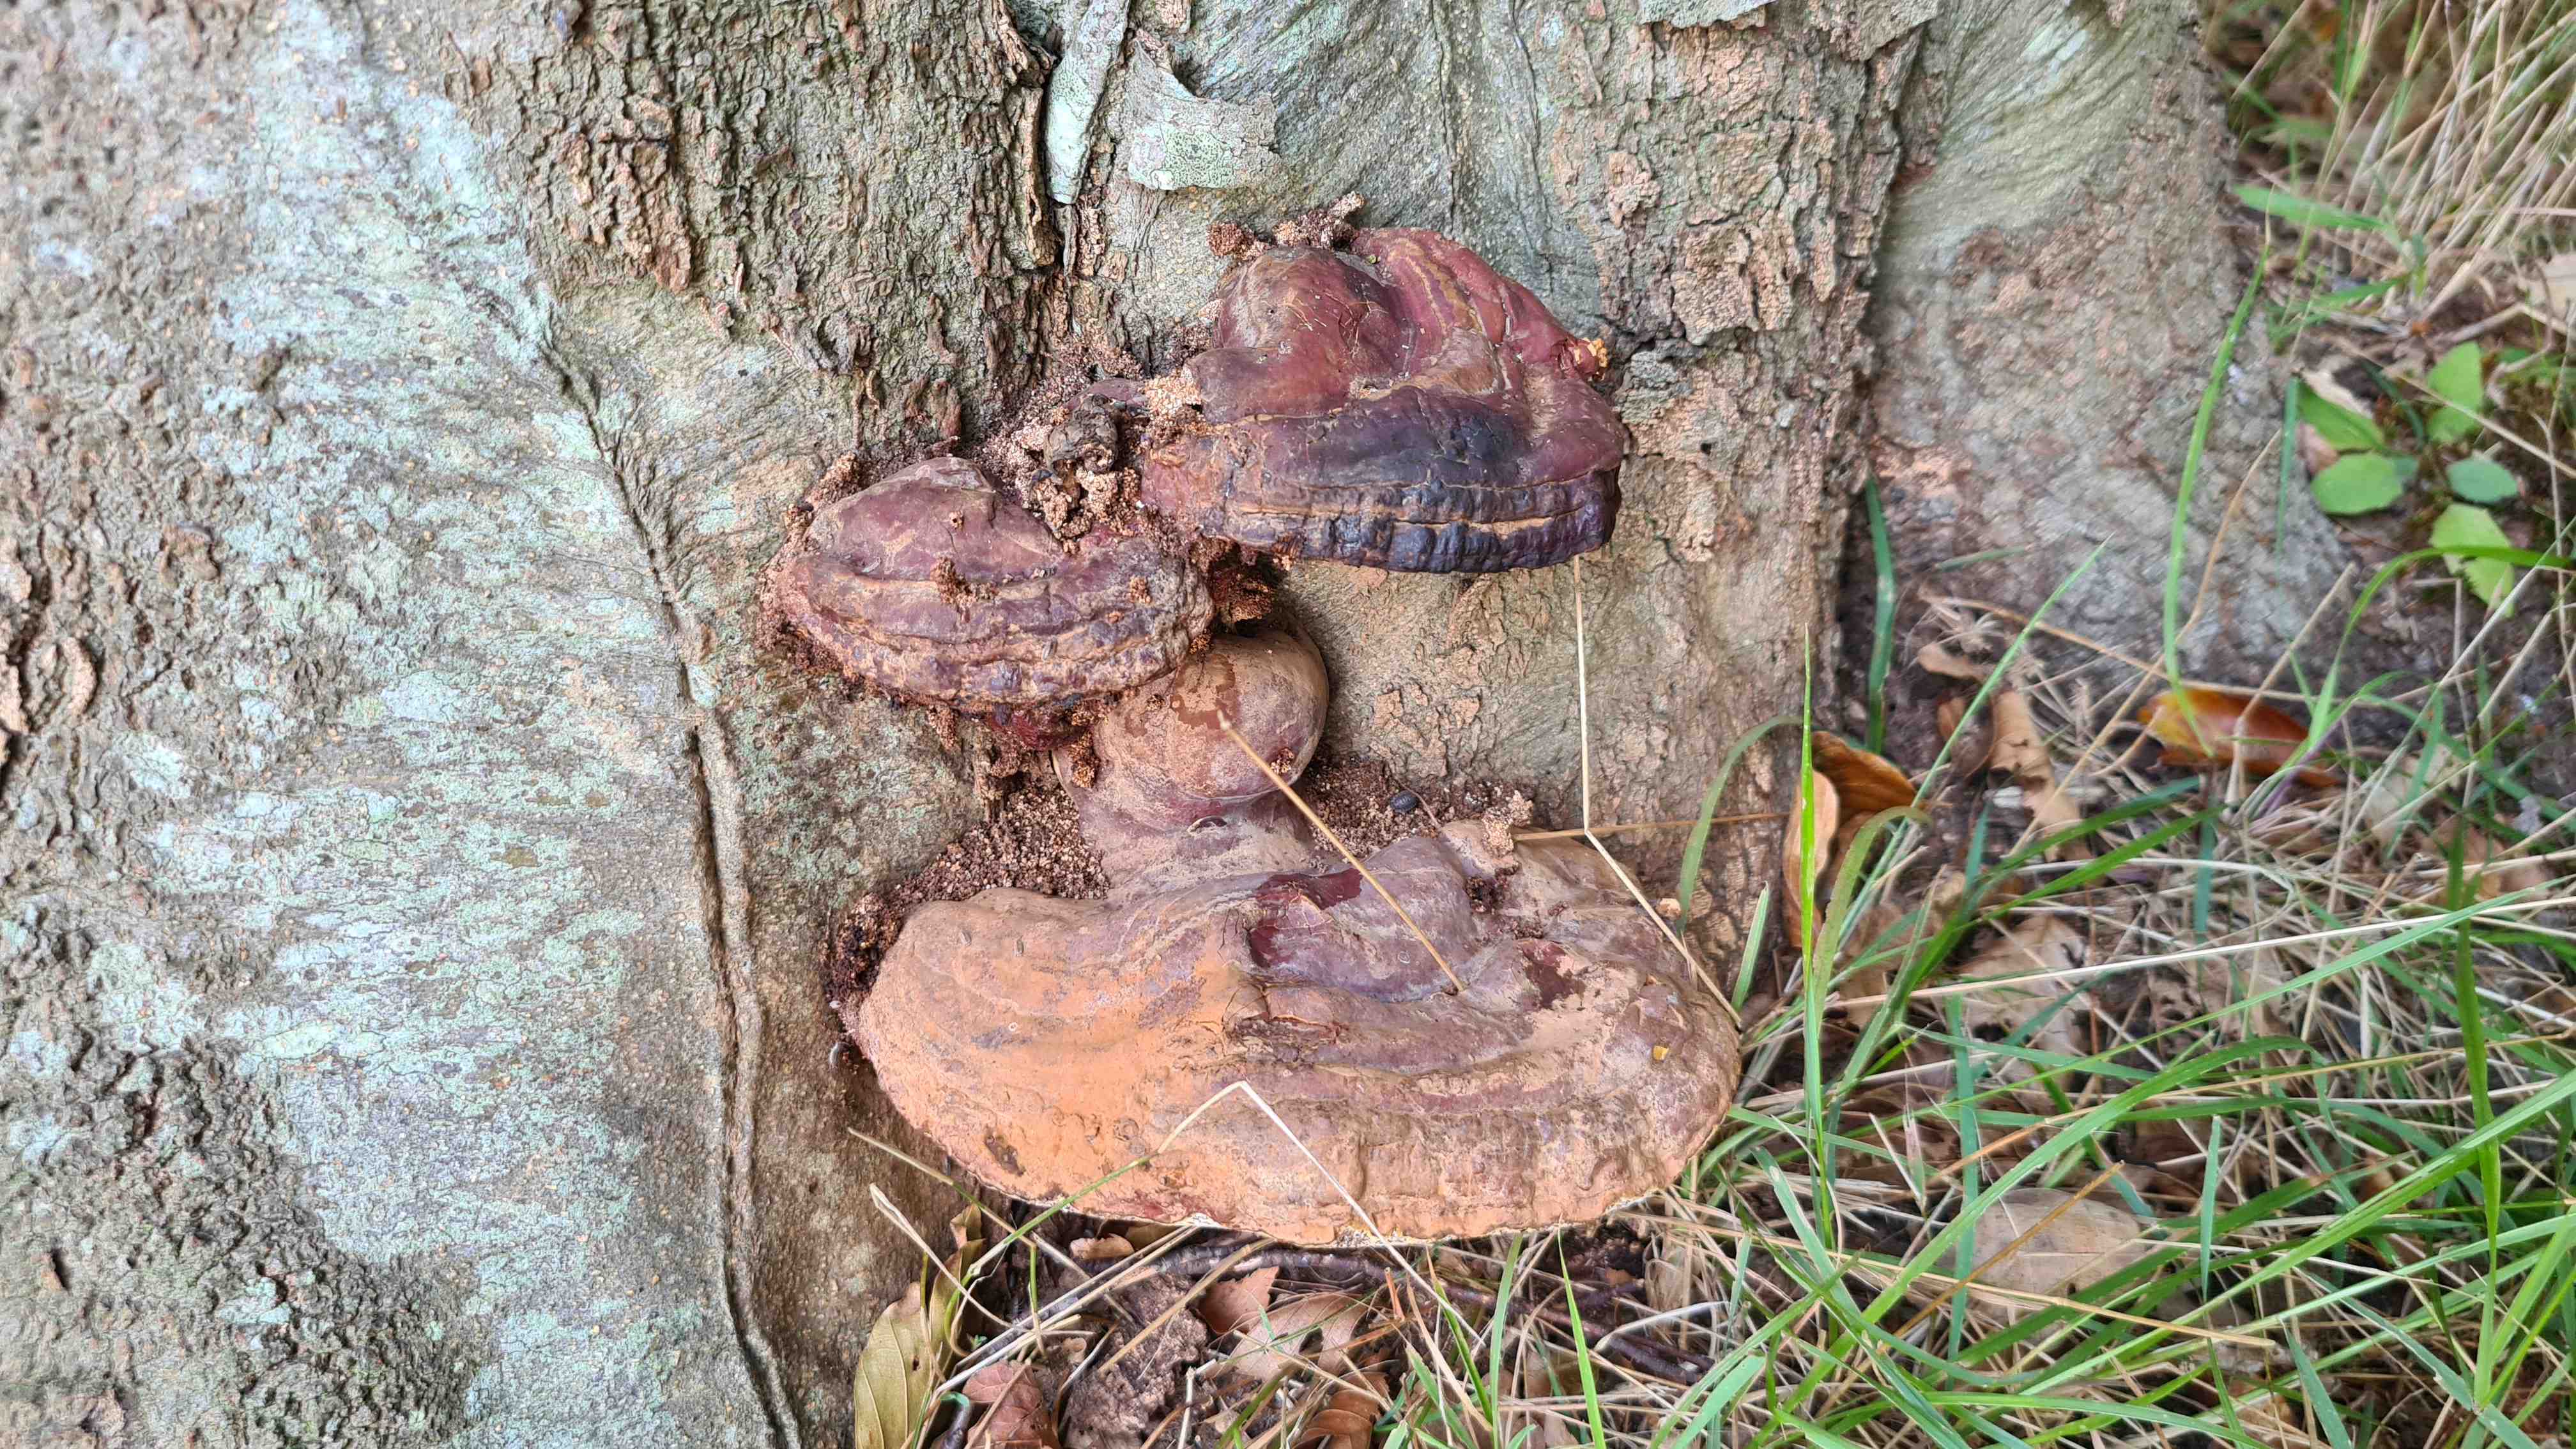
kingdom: Fungi
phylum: Basidiomycota
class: Agaricomycetes
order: Polyporales
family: Polyporaceae
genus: Ganoderma
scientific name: Ganoderma resinaceum
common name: gyldenbrun lakporesvamp
